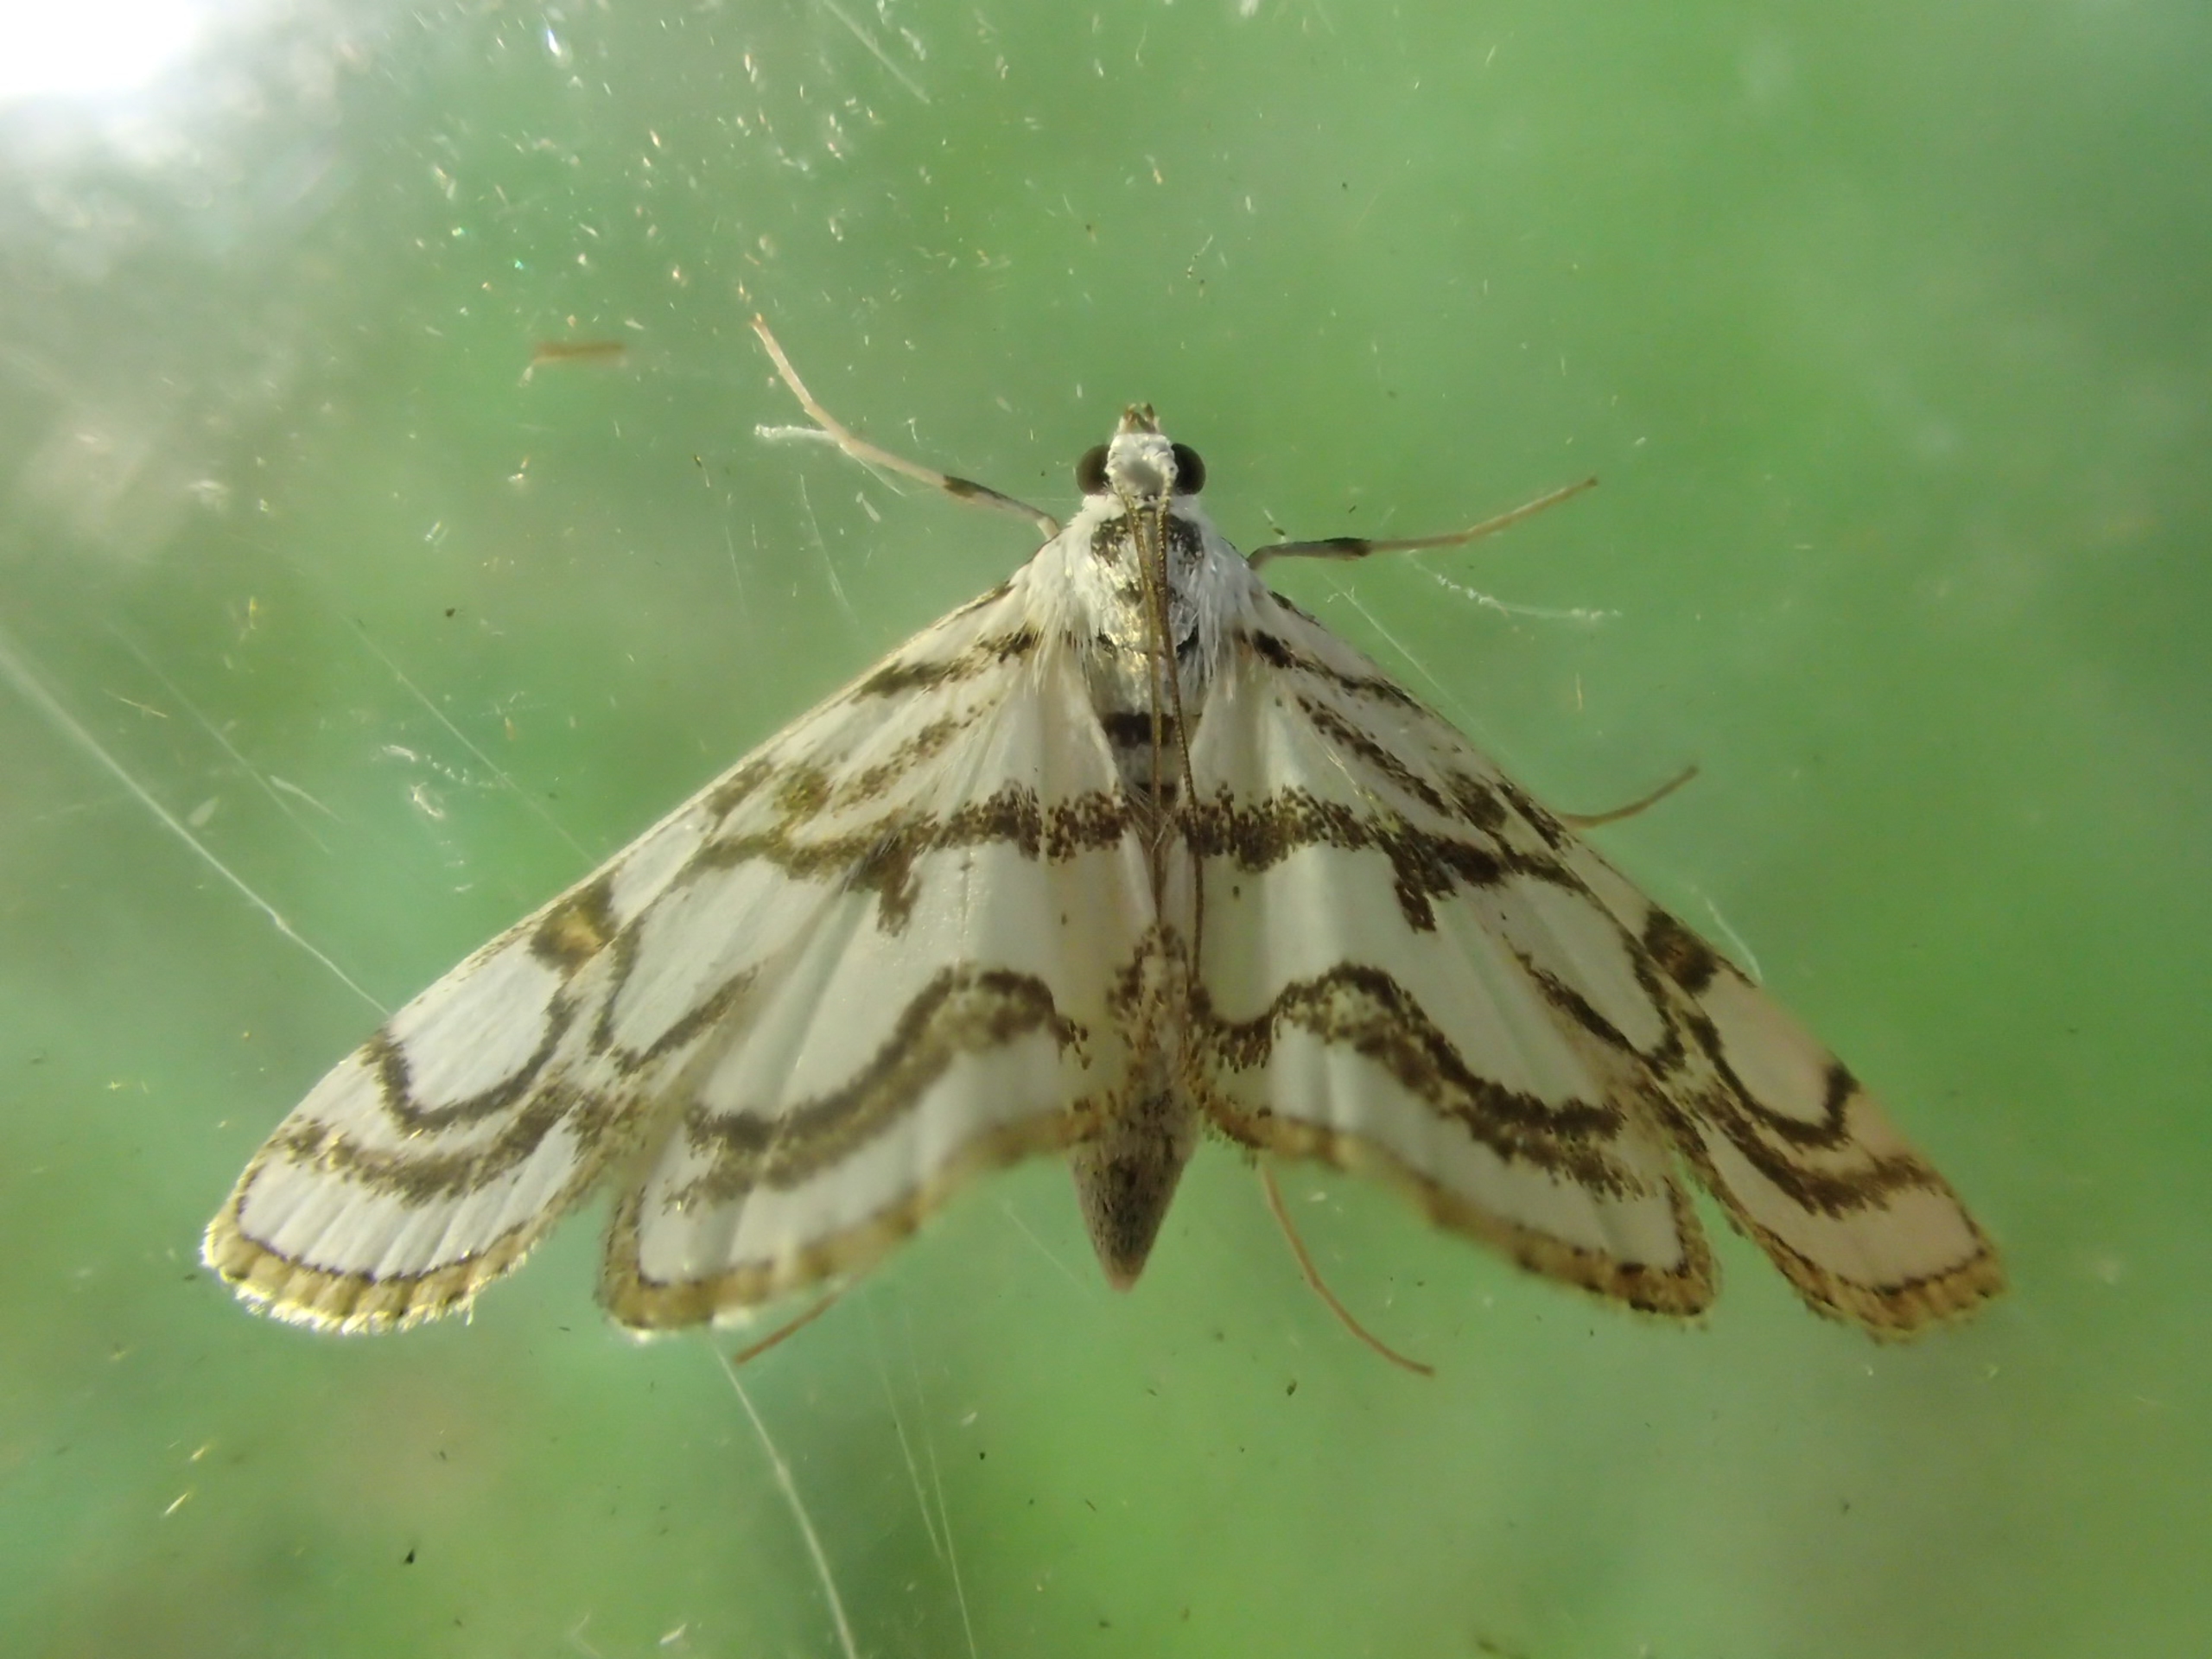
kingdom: Animalia
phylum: Arthropoda
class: Insecta
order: Lepidoptera
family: Crambidae
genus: Nymphula
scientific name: Nymphula nitidulata
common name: Lille porcelænsmøl
